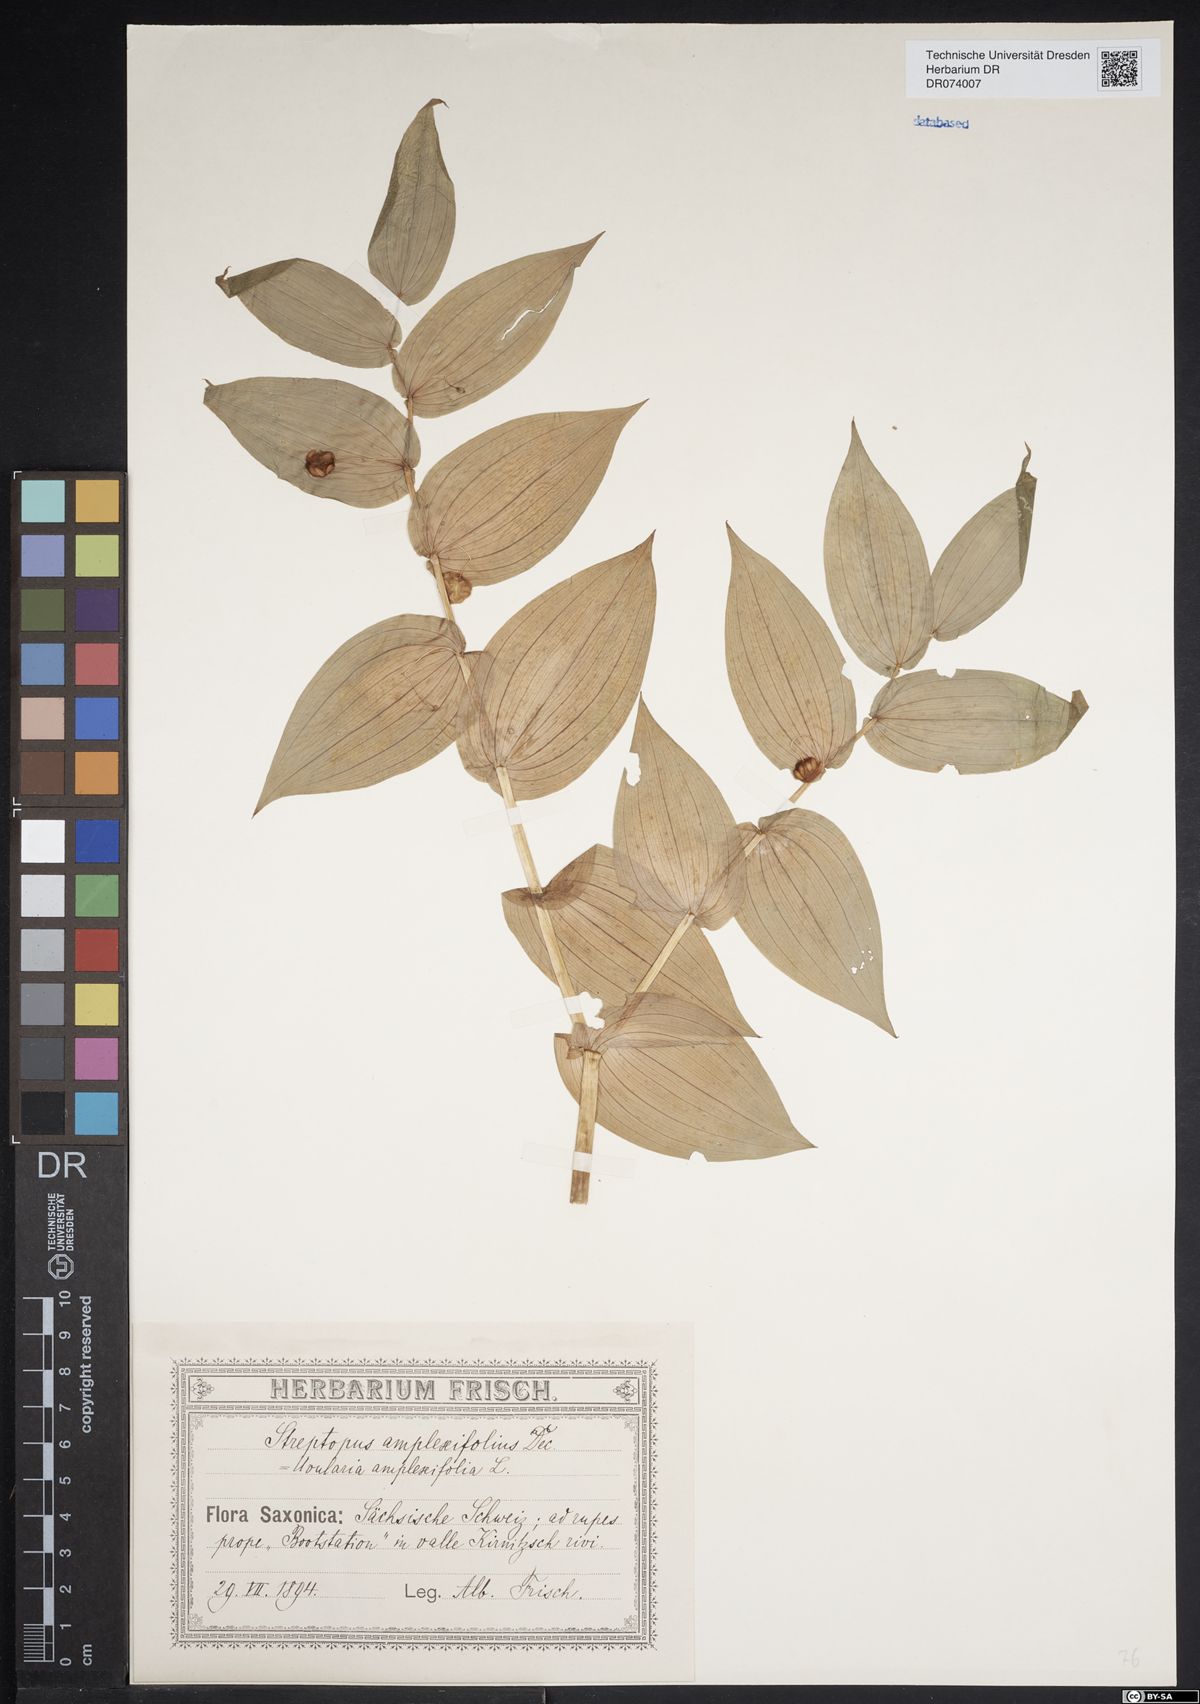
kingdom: Plantae
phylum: Tracheophyta
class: Liliopsida
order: Liliales
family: Liliaceae
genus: Streptopus
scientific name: Streptopus amplexifolius
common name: Clasp twisted stalk
